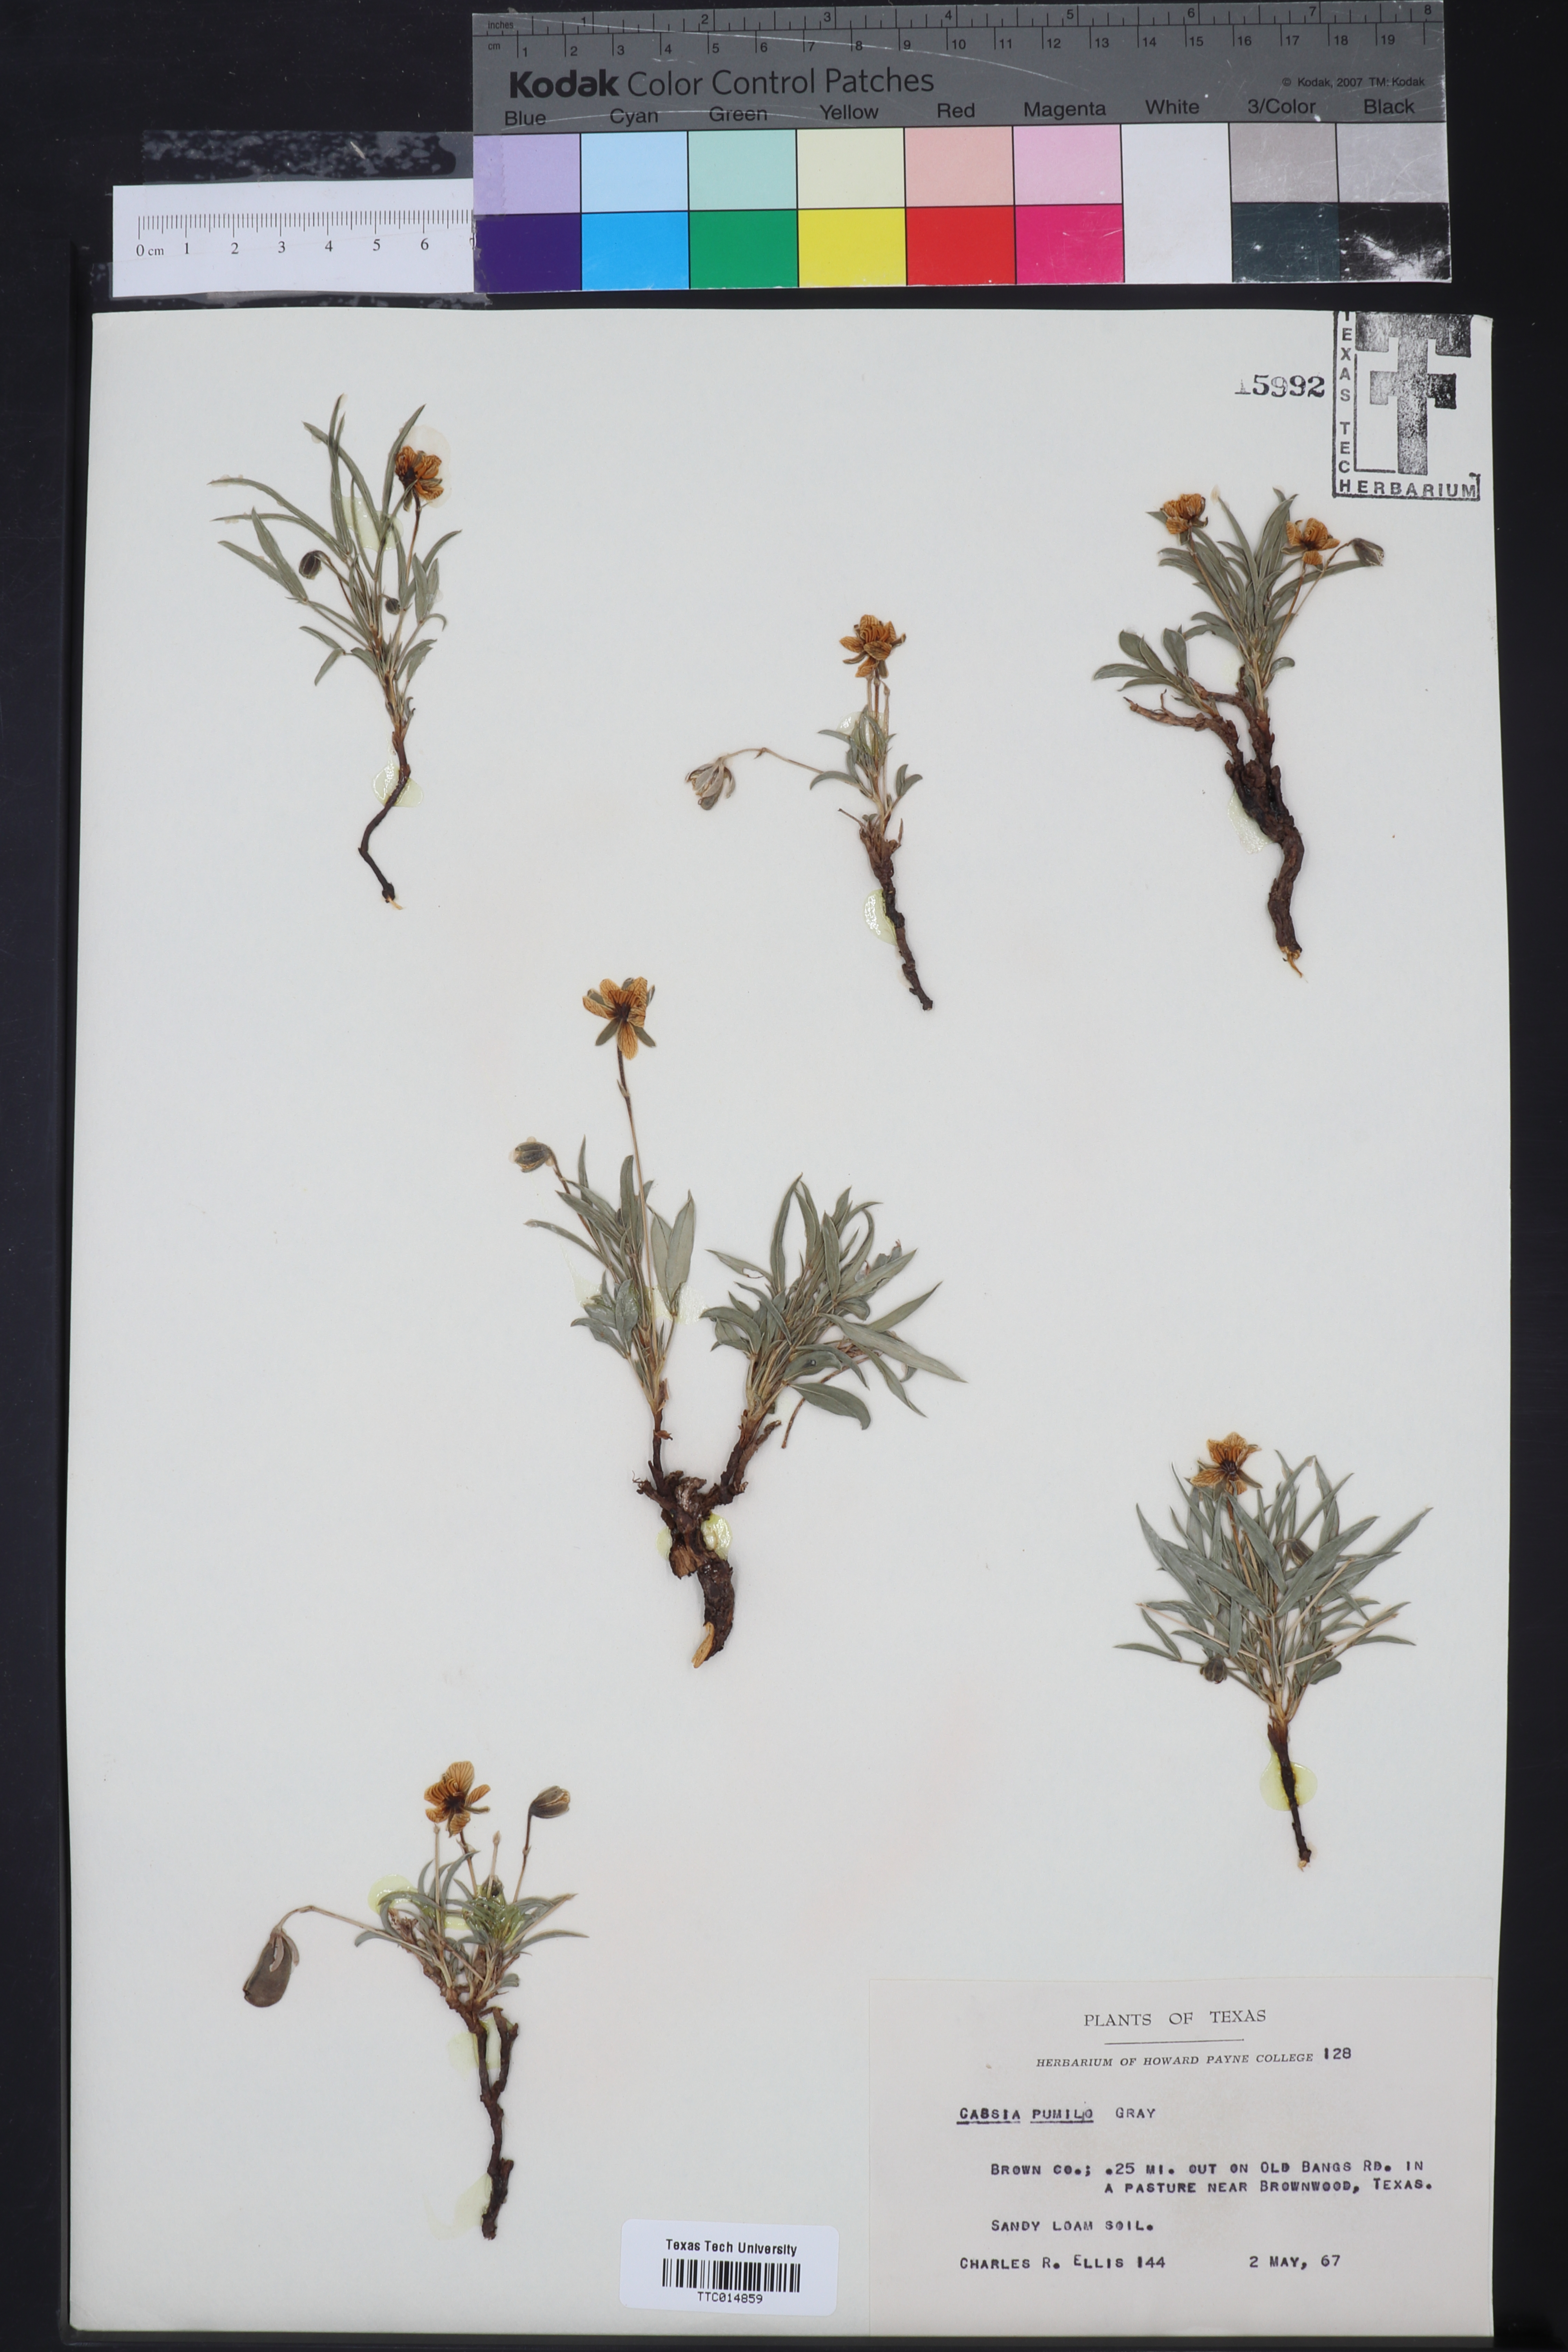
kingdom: Plantae
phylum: Tracheophyta
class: Magnoliopsida
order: Fabales
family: Fabaceae
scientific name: Fabaceae
